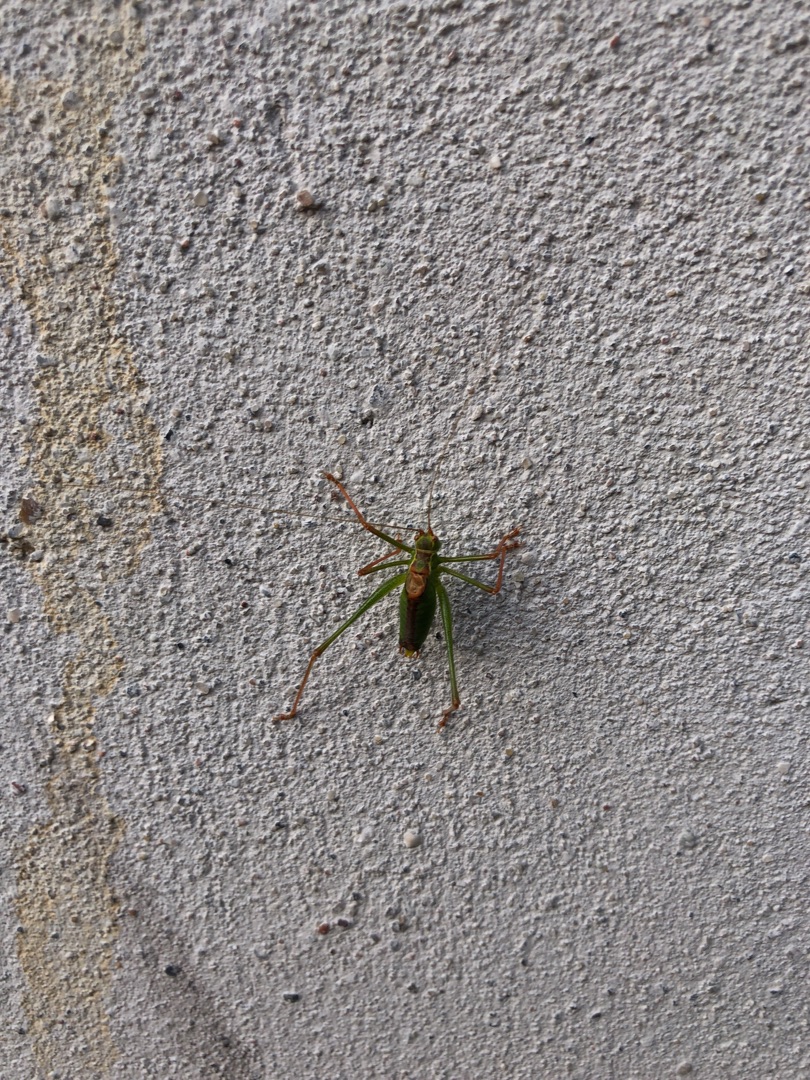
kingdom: Animalia
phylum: Arthropoda
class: Insecta
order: Orthoptera
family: Tettigoniidae
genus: Leptophyes
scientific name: Leptophyes punctatissima
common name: Krumknivgræshoppe
